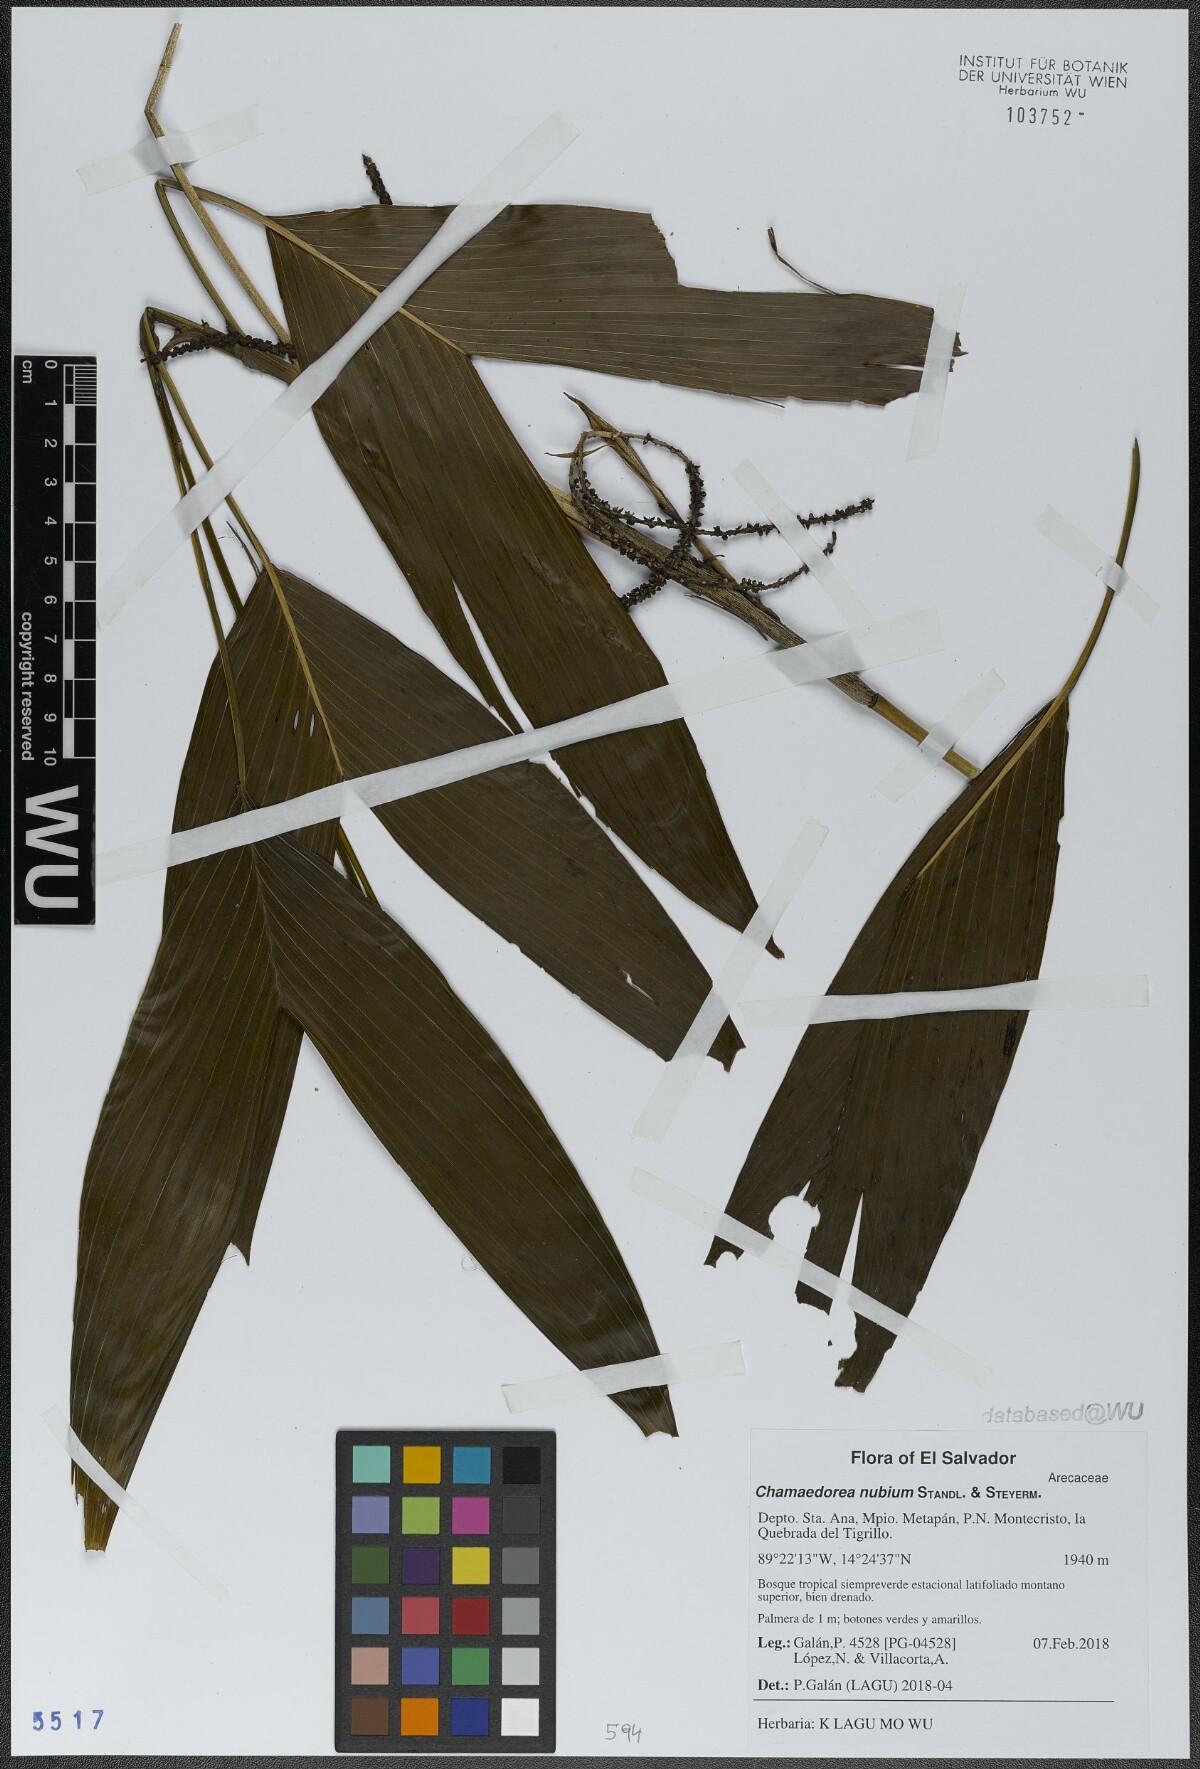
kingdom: Plantae
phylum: Tracheophyta
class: Liliopsida
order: Arecales
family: Arecaceae
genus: Chamaedorea
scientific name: Chamaedorea nubium
